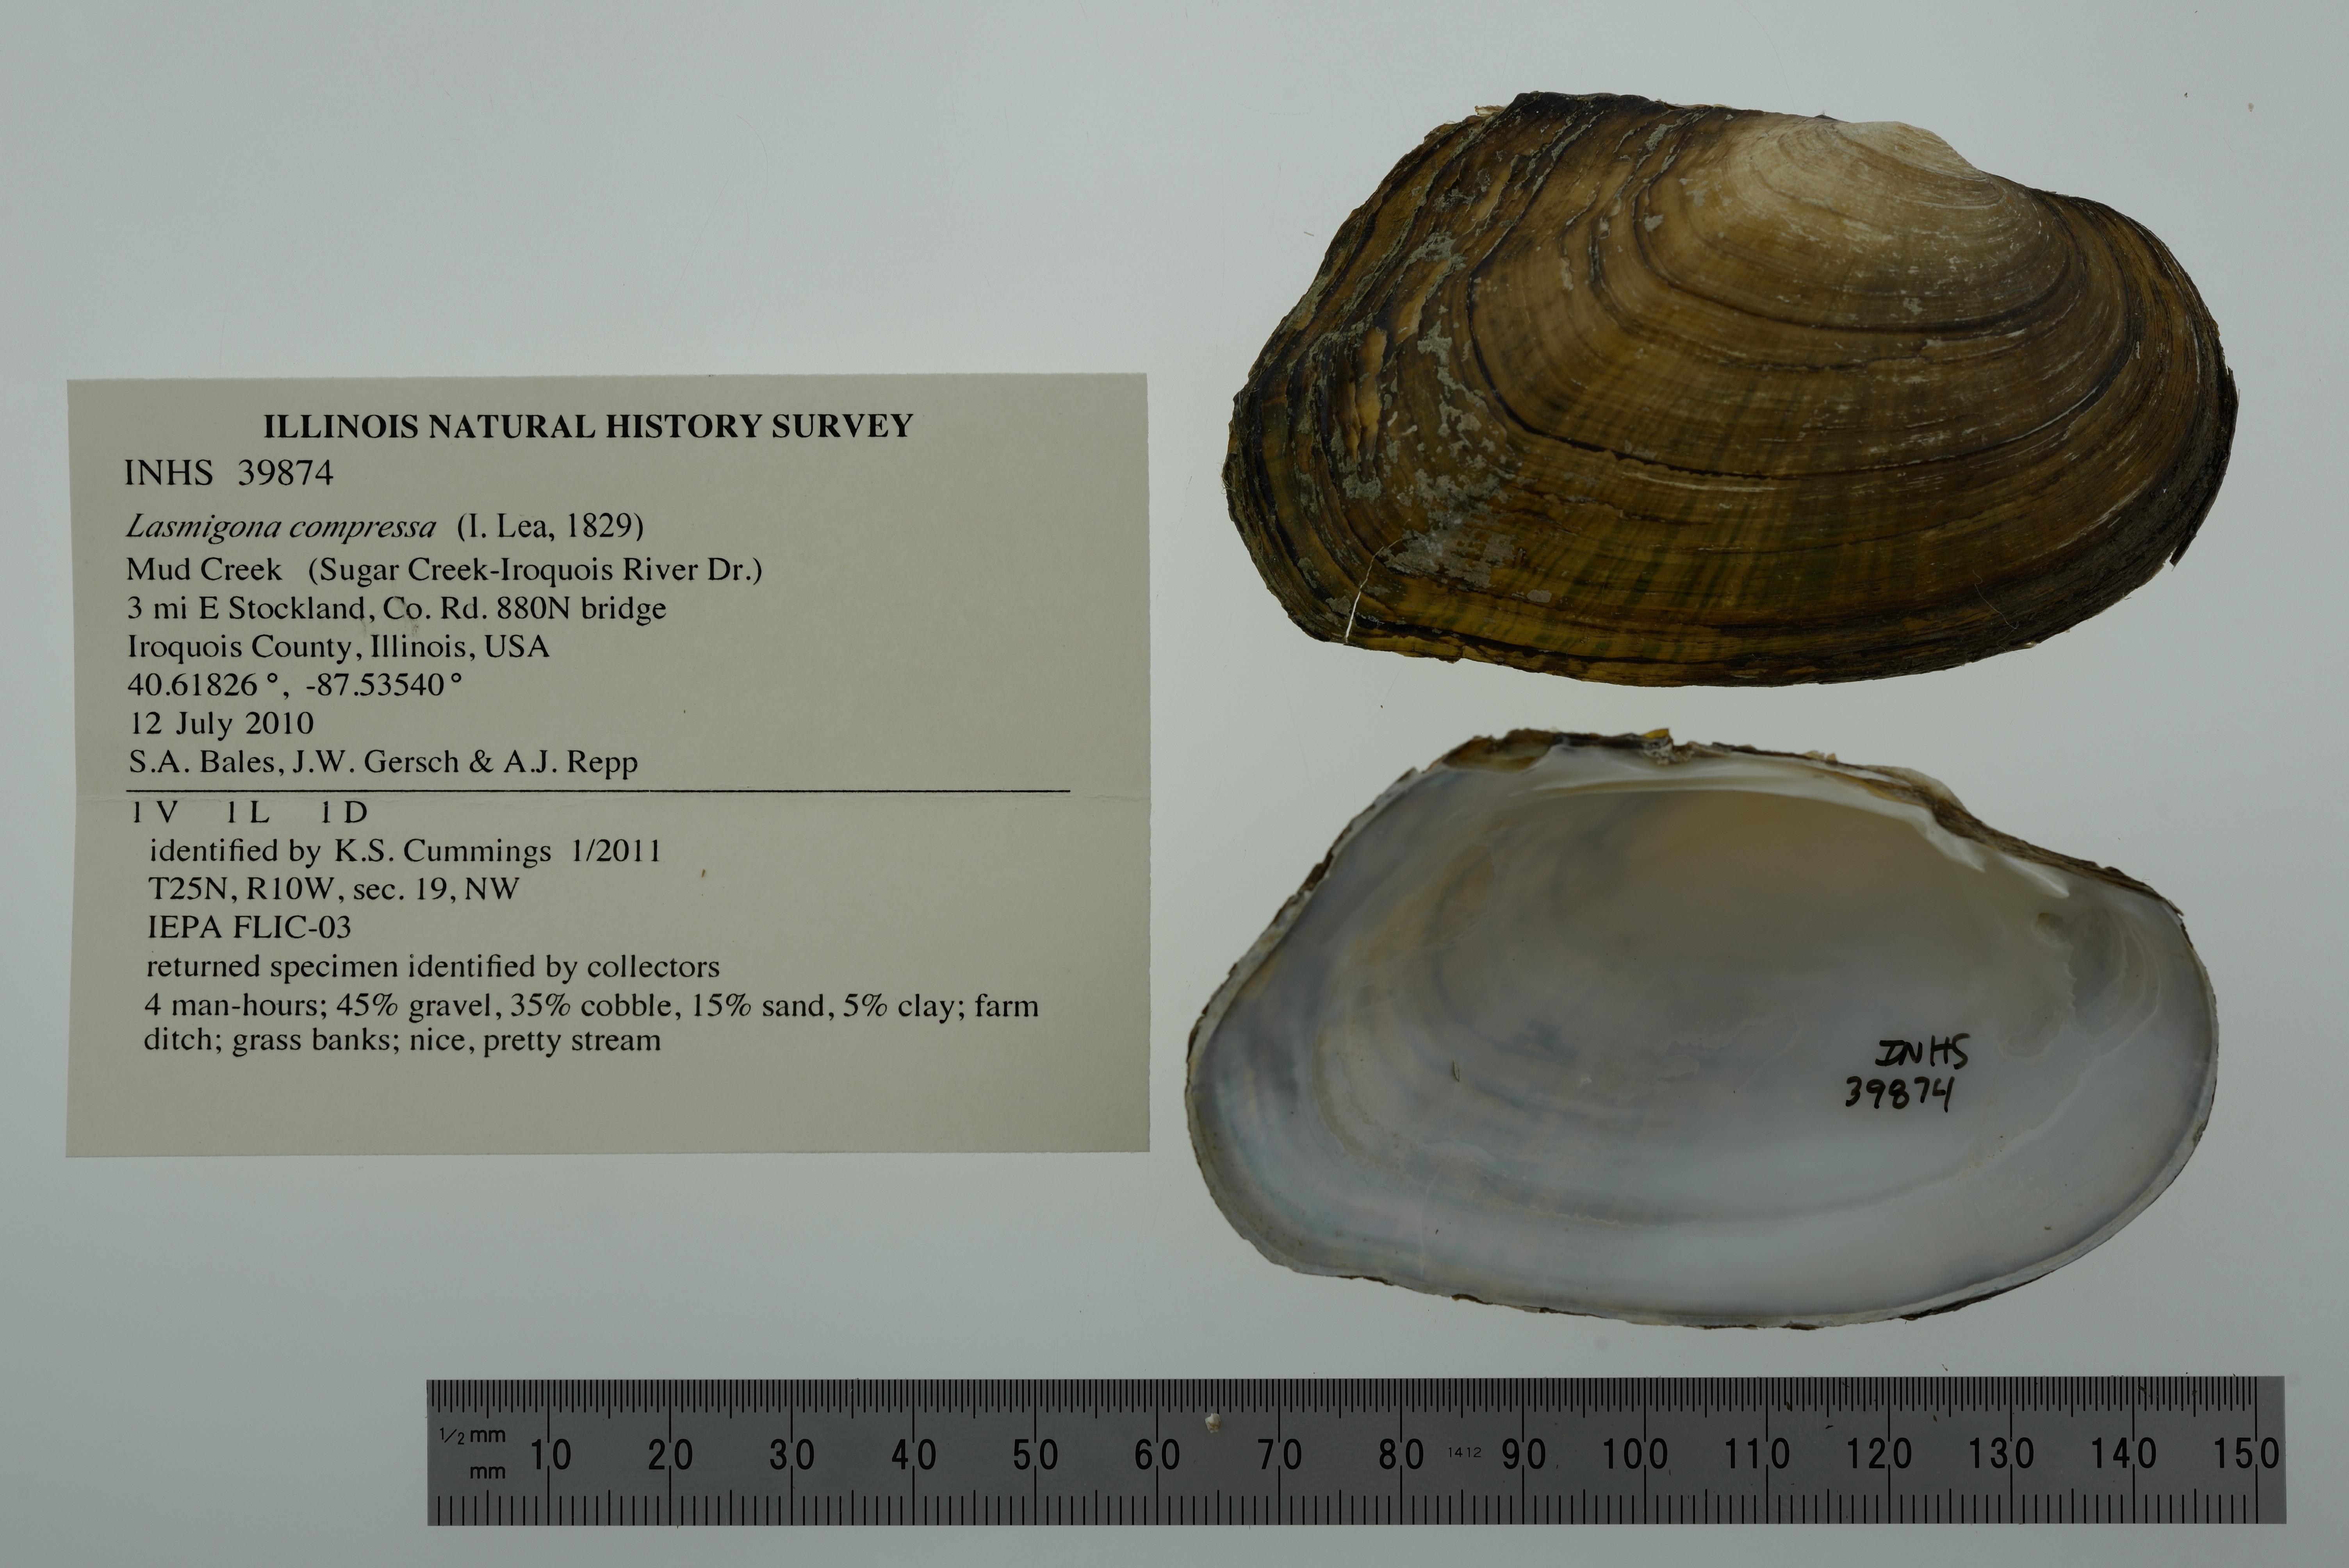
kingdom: Animalia
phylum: Mollusca
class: Bivalvia
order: Unionida
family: Unionidae
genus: Lasmigona
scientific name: Lasmigona compressa
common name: Creek heelsplitter
